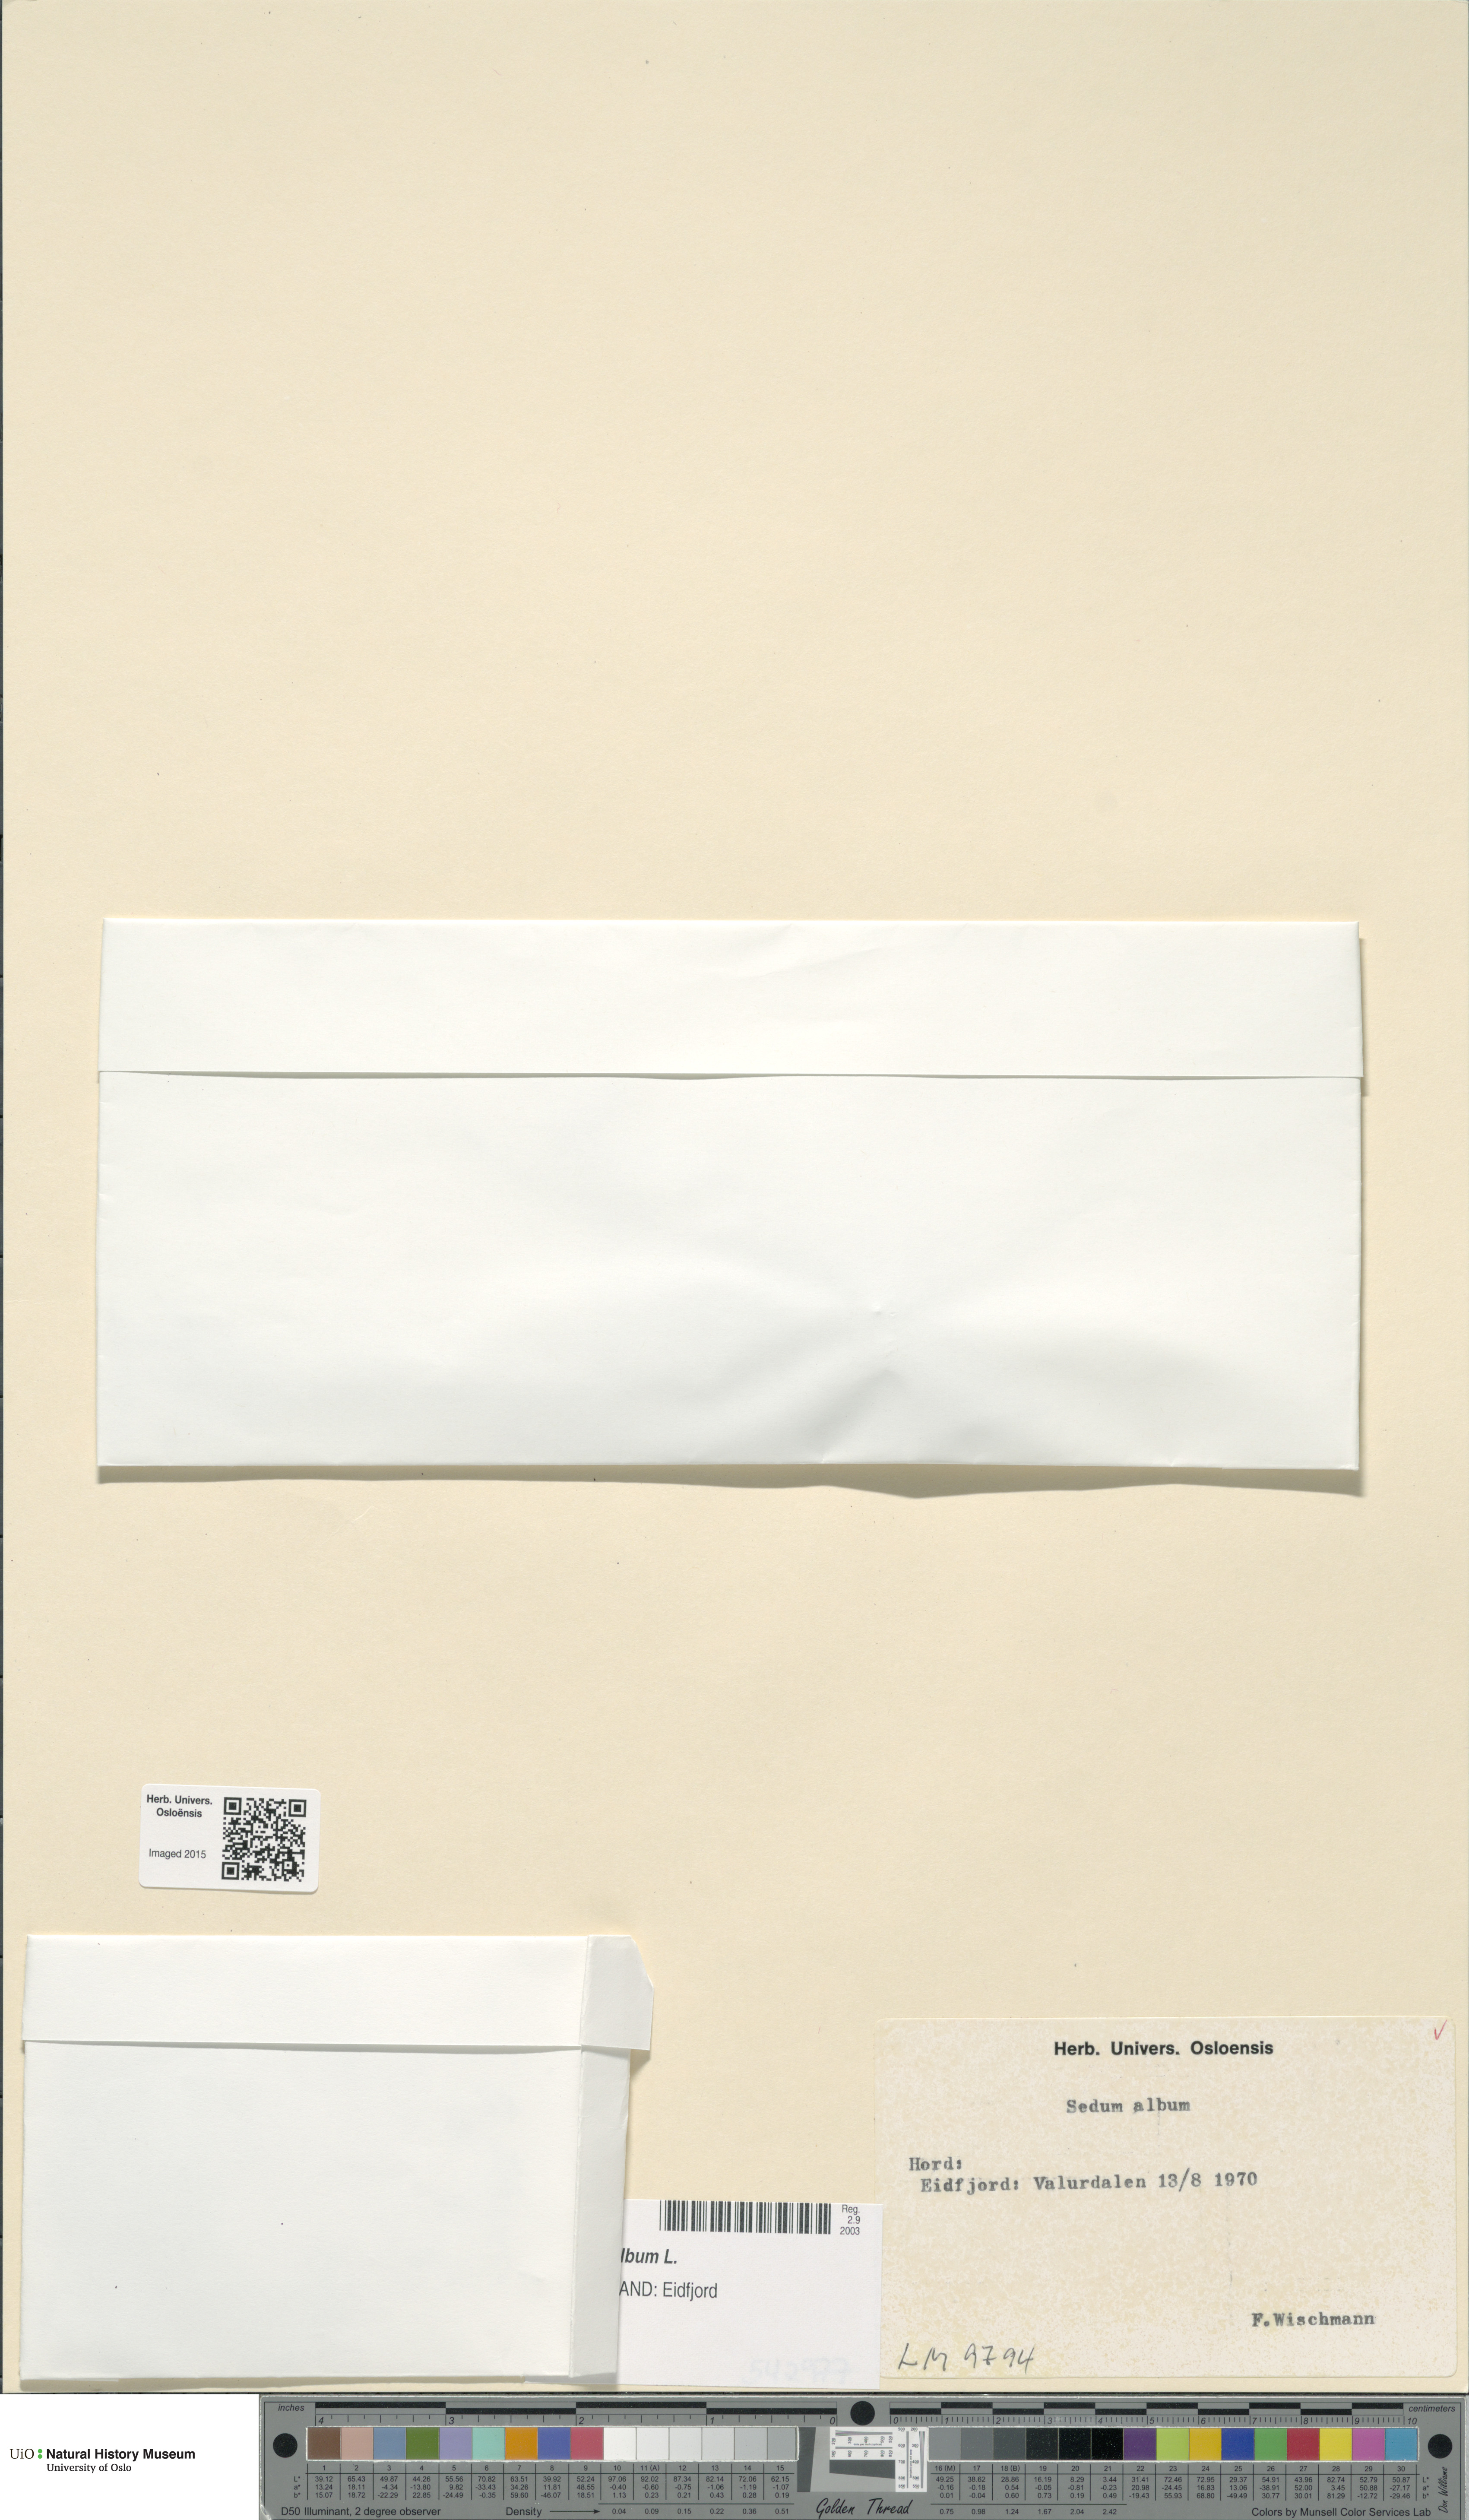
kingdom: Plantae
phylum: Tracheophyta
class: Magnoliopsida
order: Saxifragales
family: Crassulaceae
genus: Sedum
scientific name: Sedum album
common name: White stonecrop
